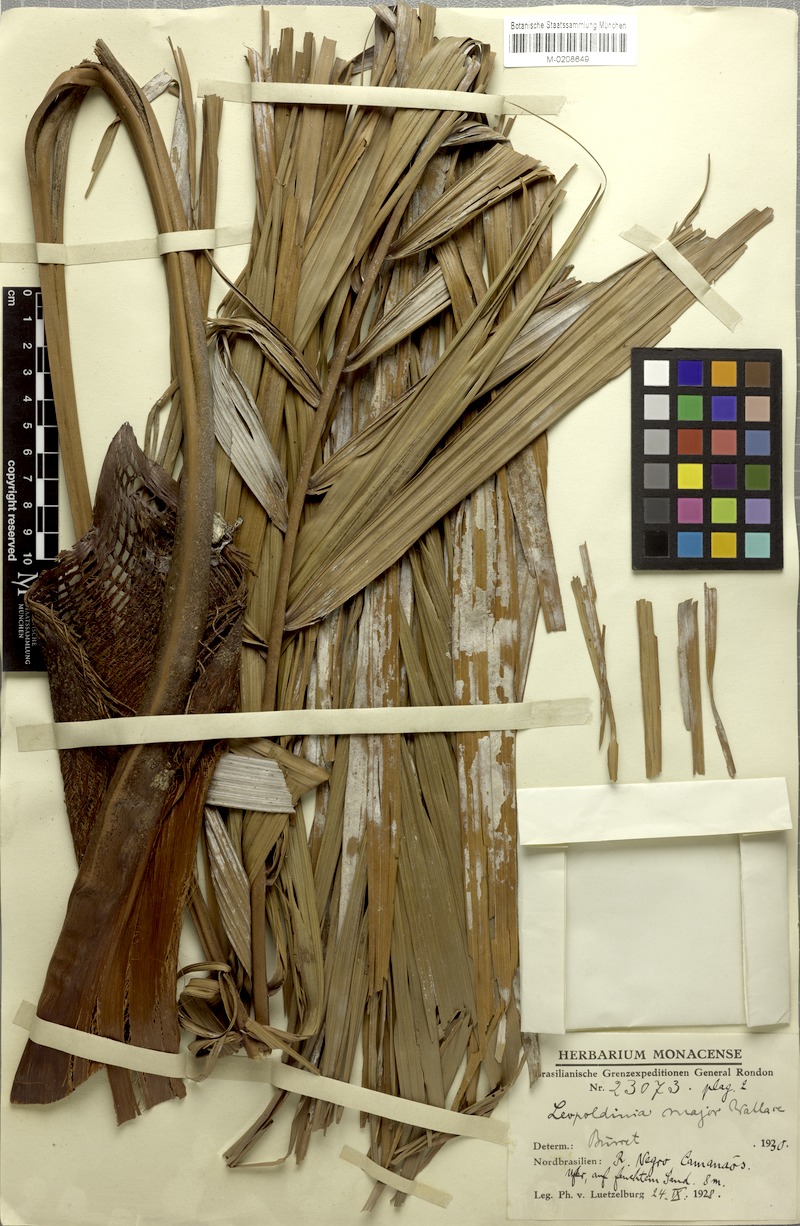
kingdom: Plantae
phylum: Tracheophyta
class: Liliopsida
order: Arecales
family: Arecaceae
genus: Leopoldinia
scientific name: Leopoldinia major
